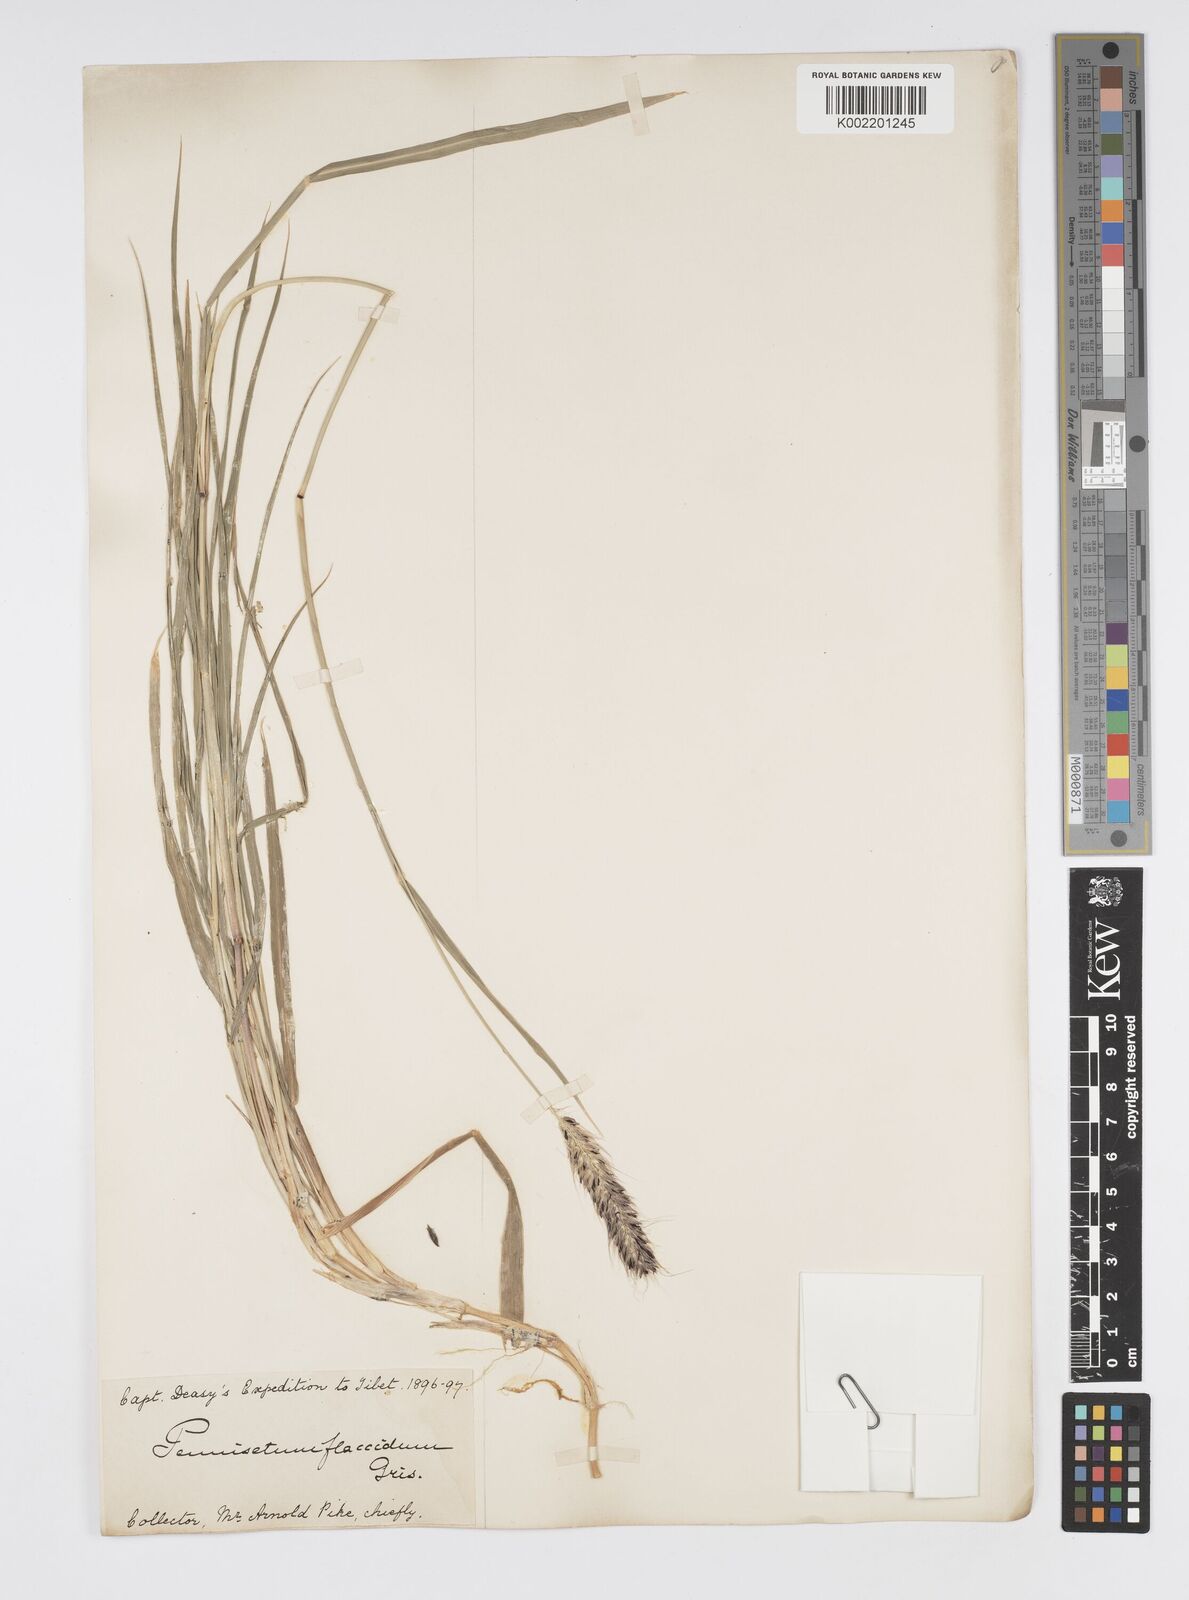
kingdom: Plantae
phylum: Tracheophyta
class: Liliopsida
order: Poales
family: Poaceae
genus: Cenchrus
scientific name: Cenchrus flaccidus
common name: Flaccid grass
